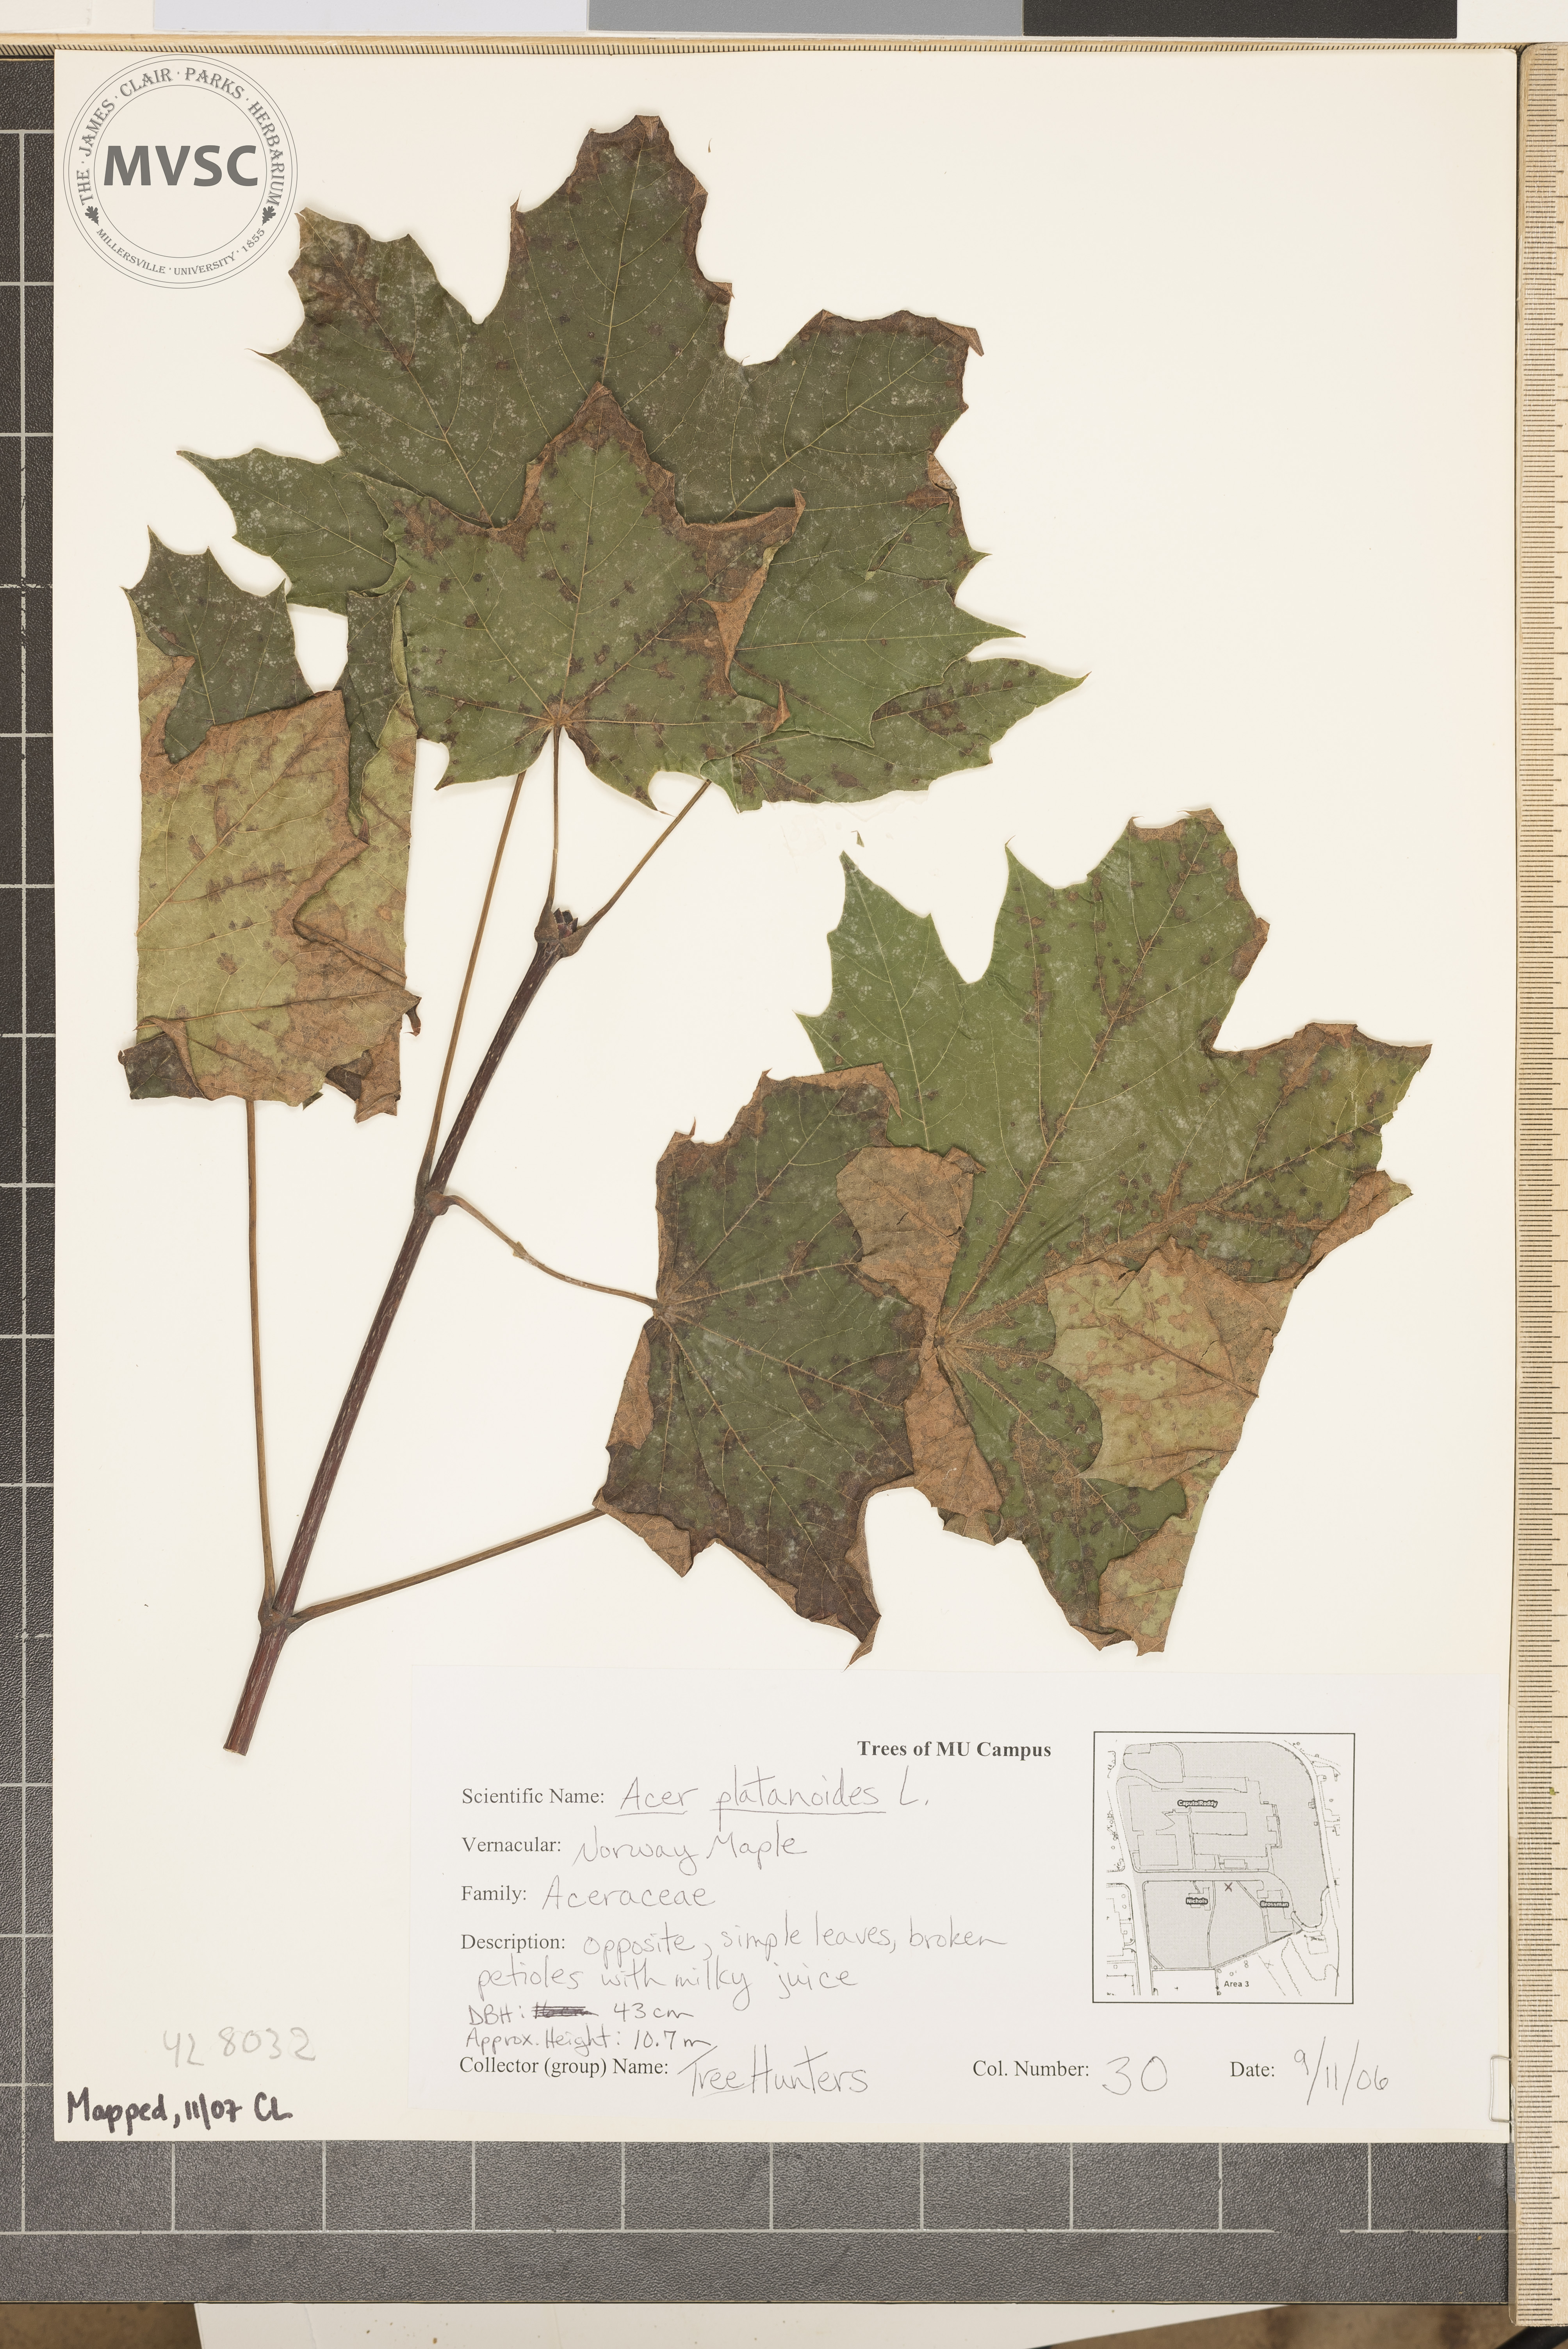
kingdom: Plantae
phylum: Tracheophyta
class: Magnoliopsida
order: Sapindales
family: Sapindaceae
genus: Acer
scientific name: Acer platanoides
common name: Norway Maple
